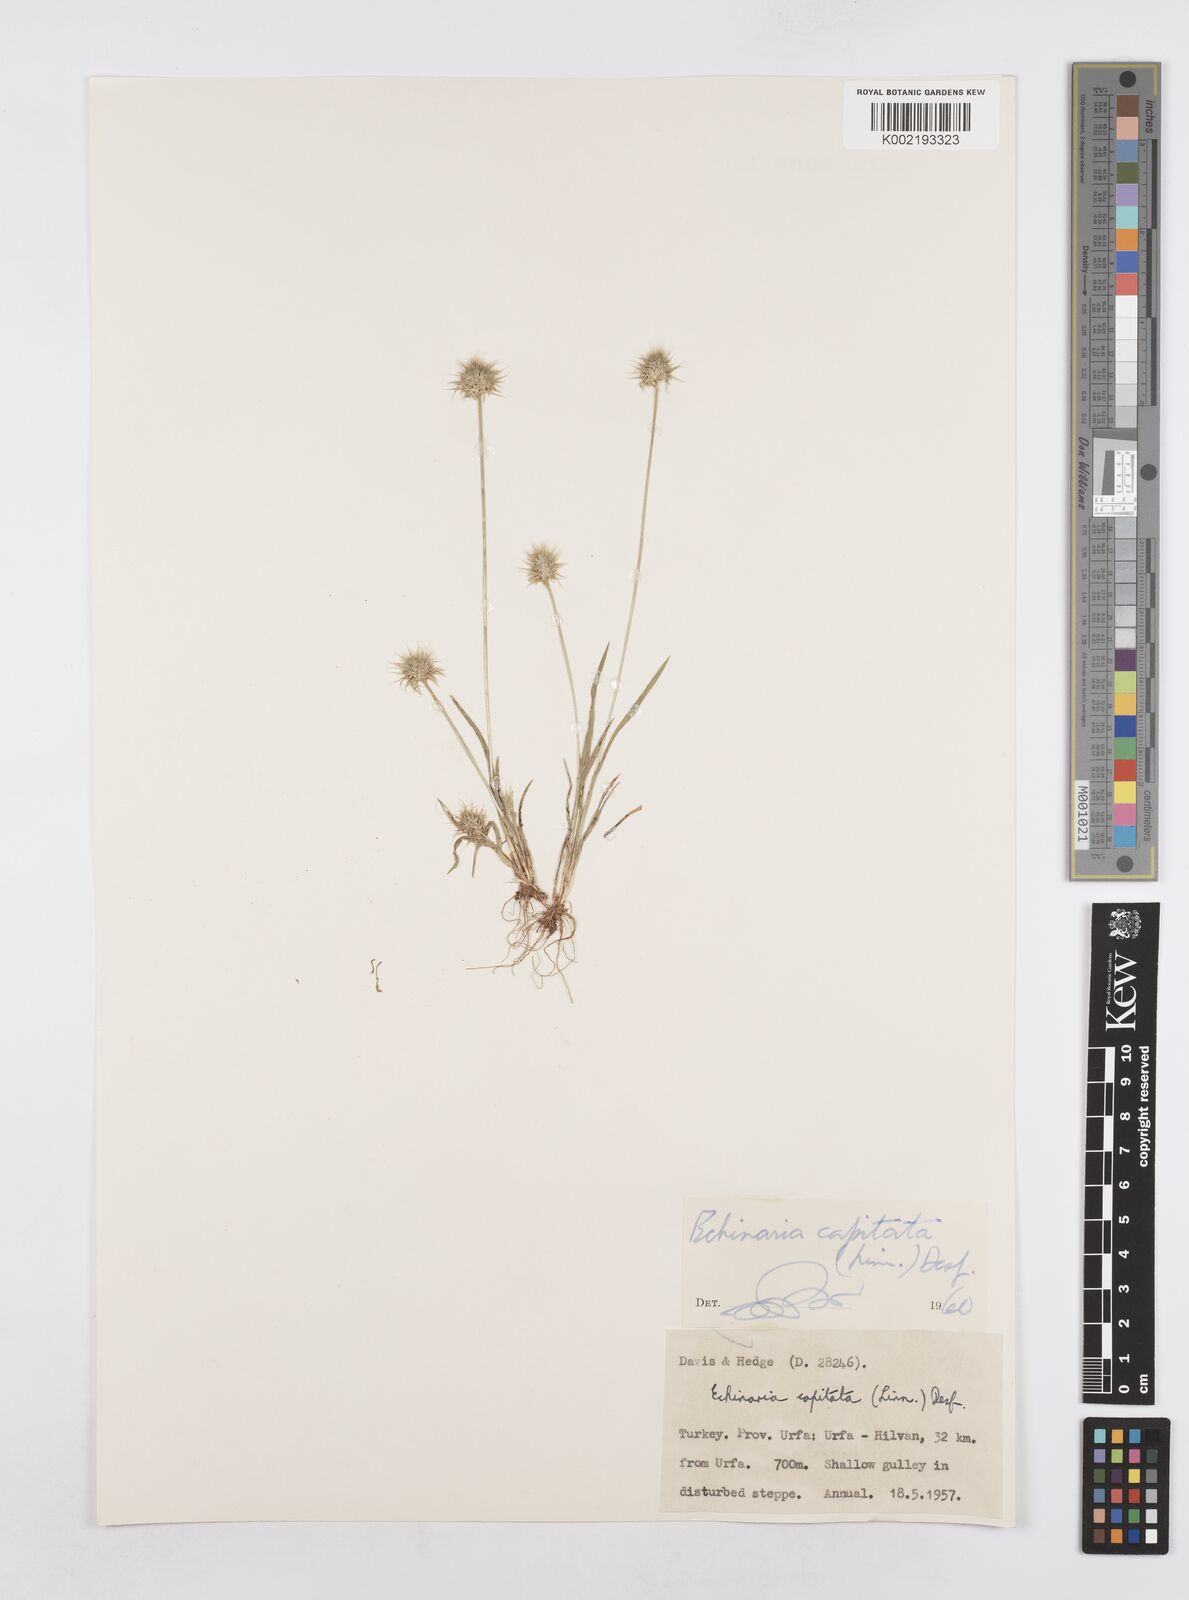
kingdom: Plantae
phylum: Tracheophyta
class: Liliopsida
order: Poales
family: Poaceae
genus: Echinaria
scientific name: Echinaria capitata
